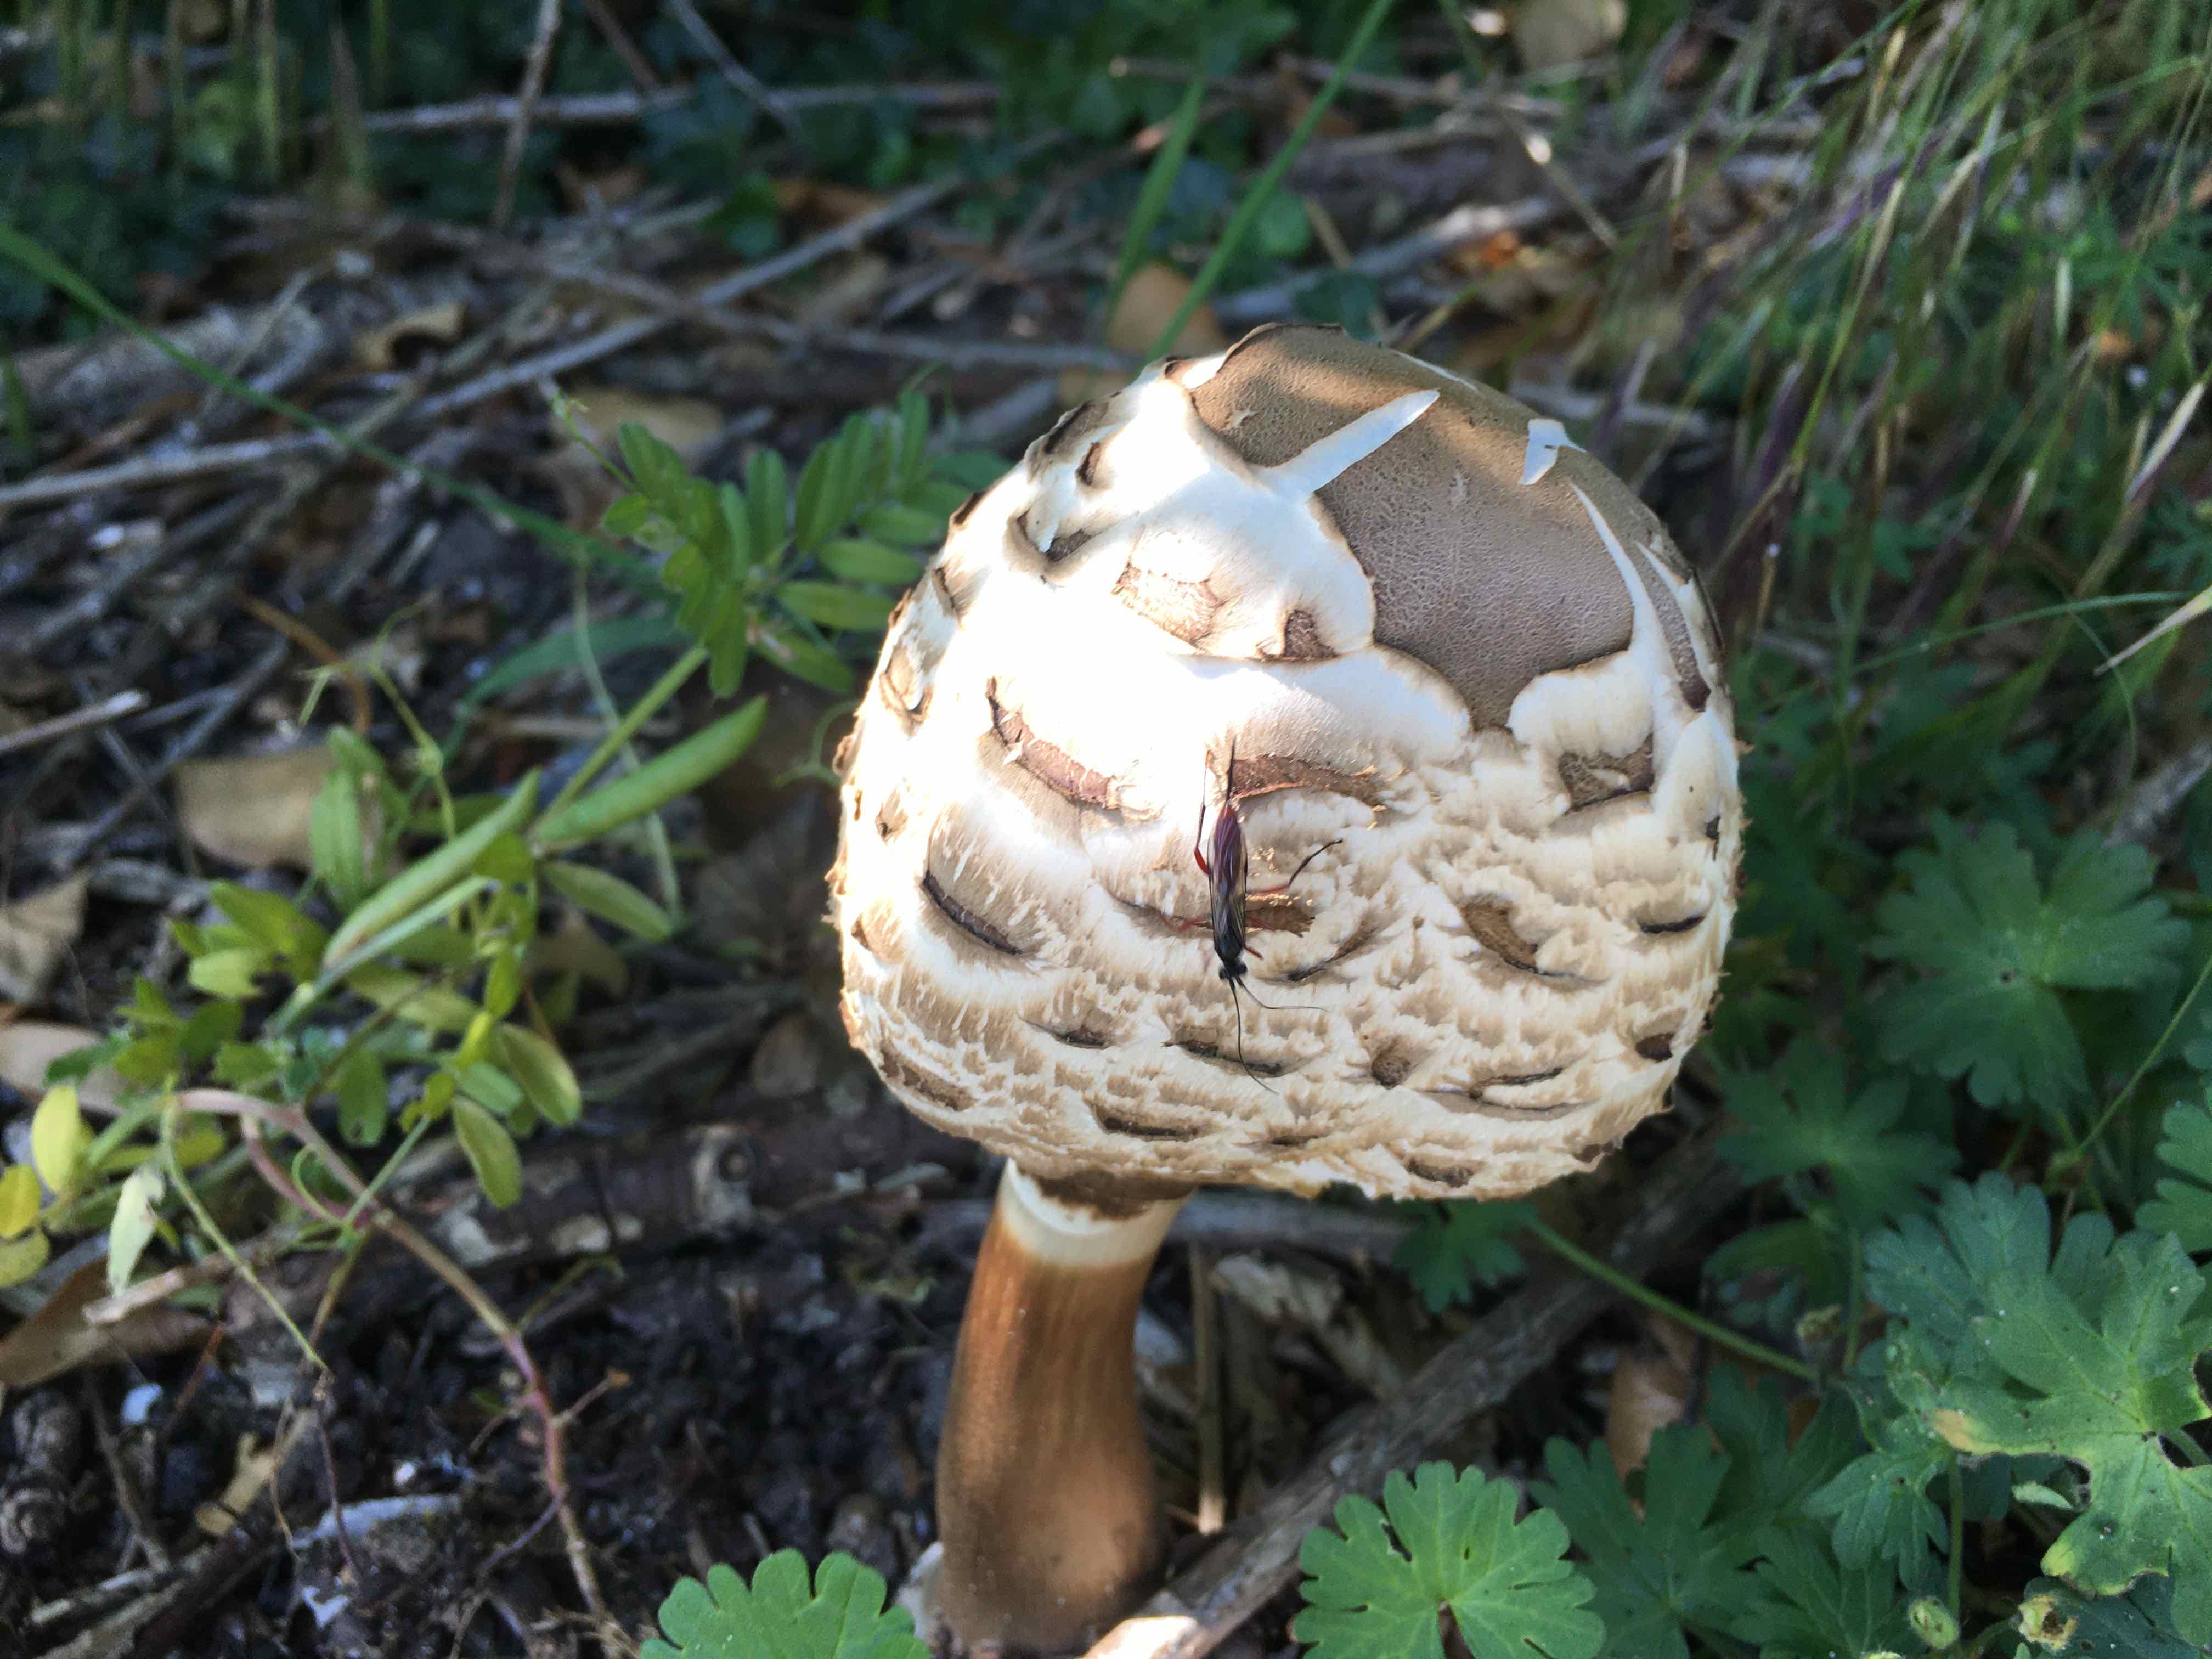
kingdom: Fungi
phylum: Basidiomycota
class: Agaricomycetes
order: Agaricales
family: Agaricaceae
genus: Chlorophyllum
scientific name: Chlorophyllum
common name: rabarberhat
